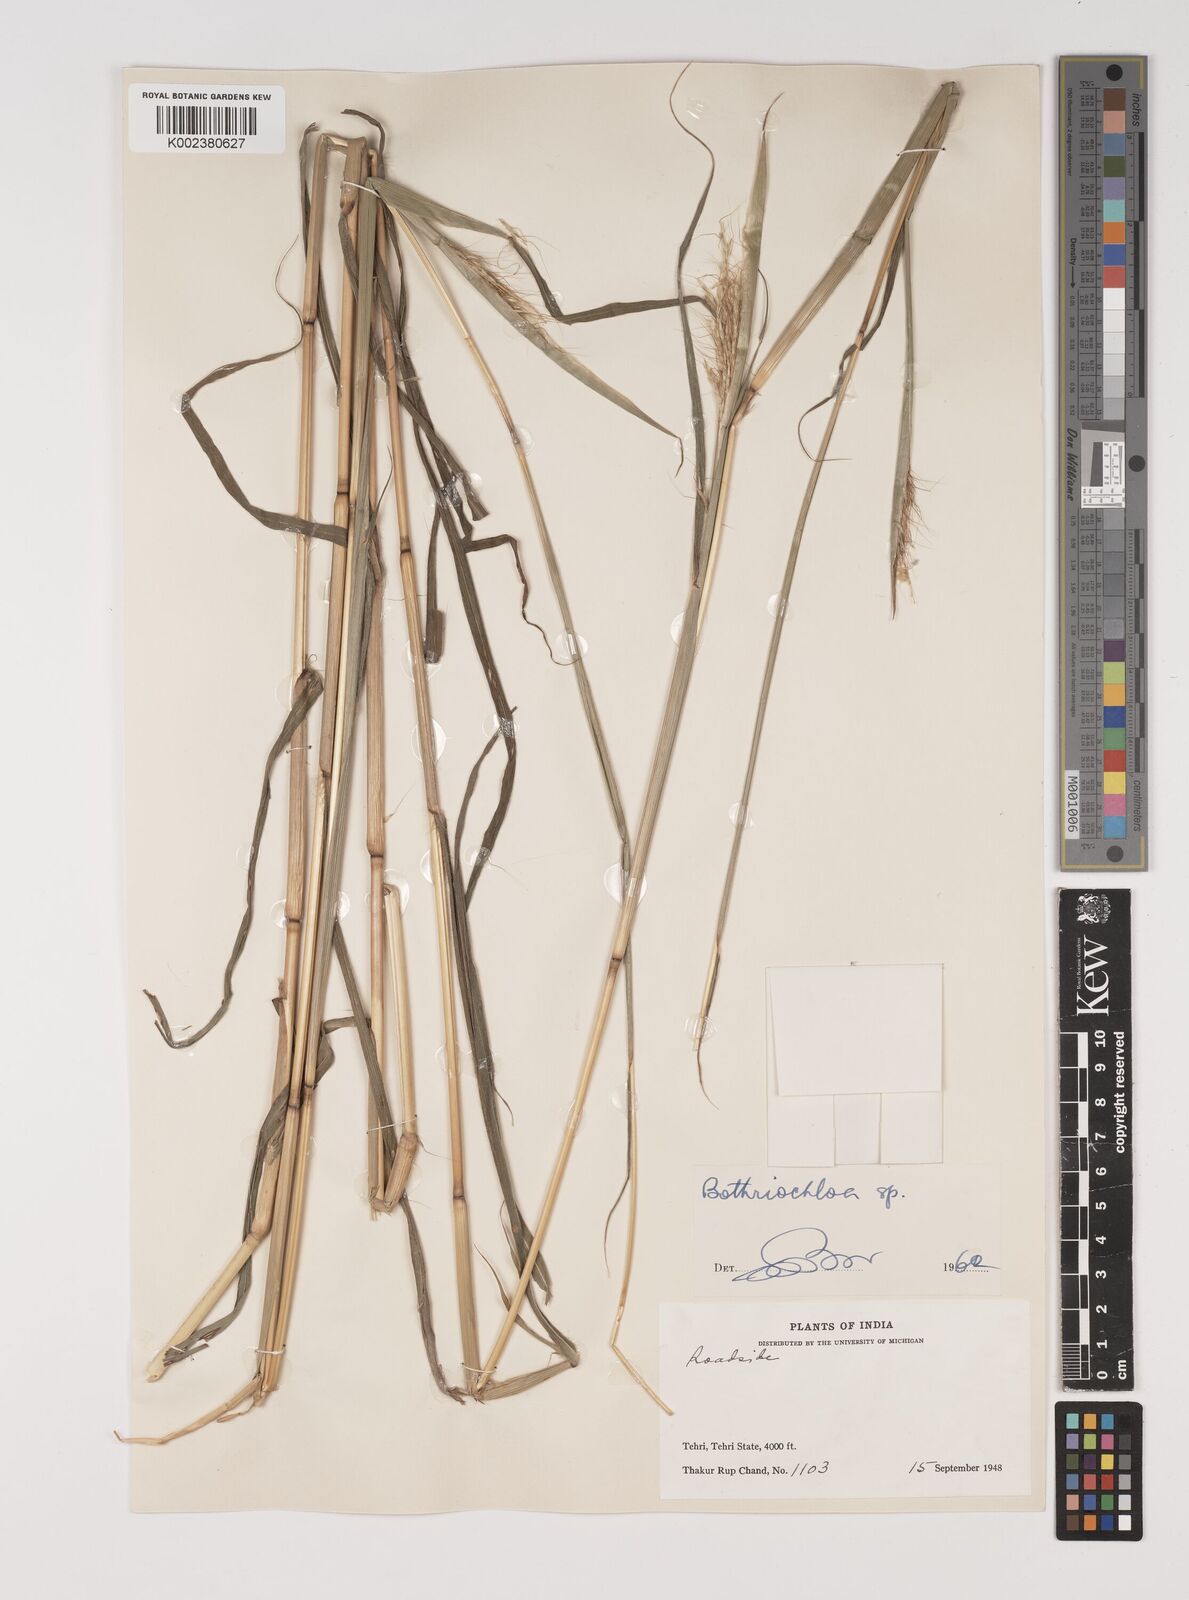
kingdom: Plantae
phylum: Tracheophyta
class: Liliopsida
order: Poales
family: Poaceae
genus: Bothriochloa
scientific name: Bothriochloa bladhii
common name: Caucasian bluestem
